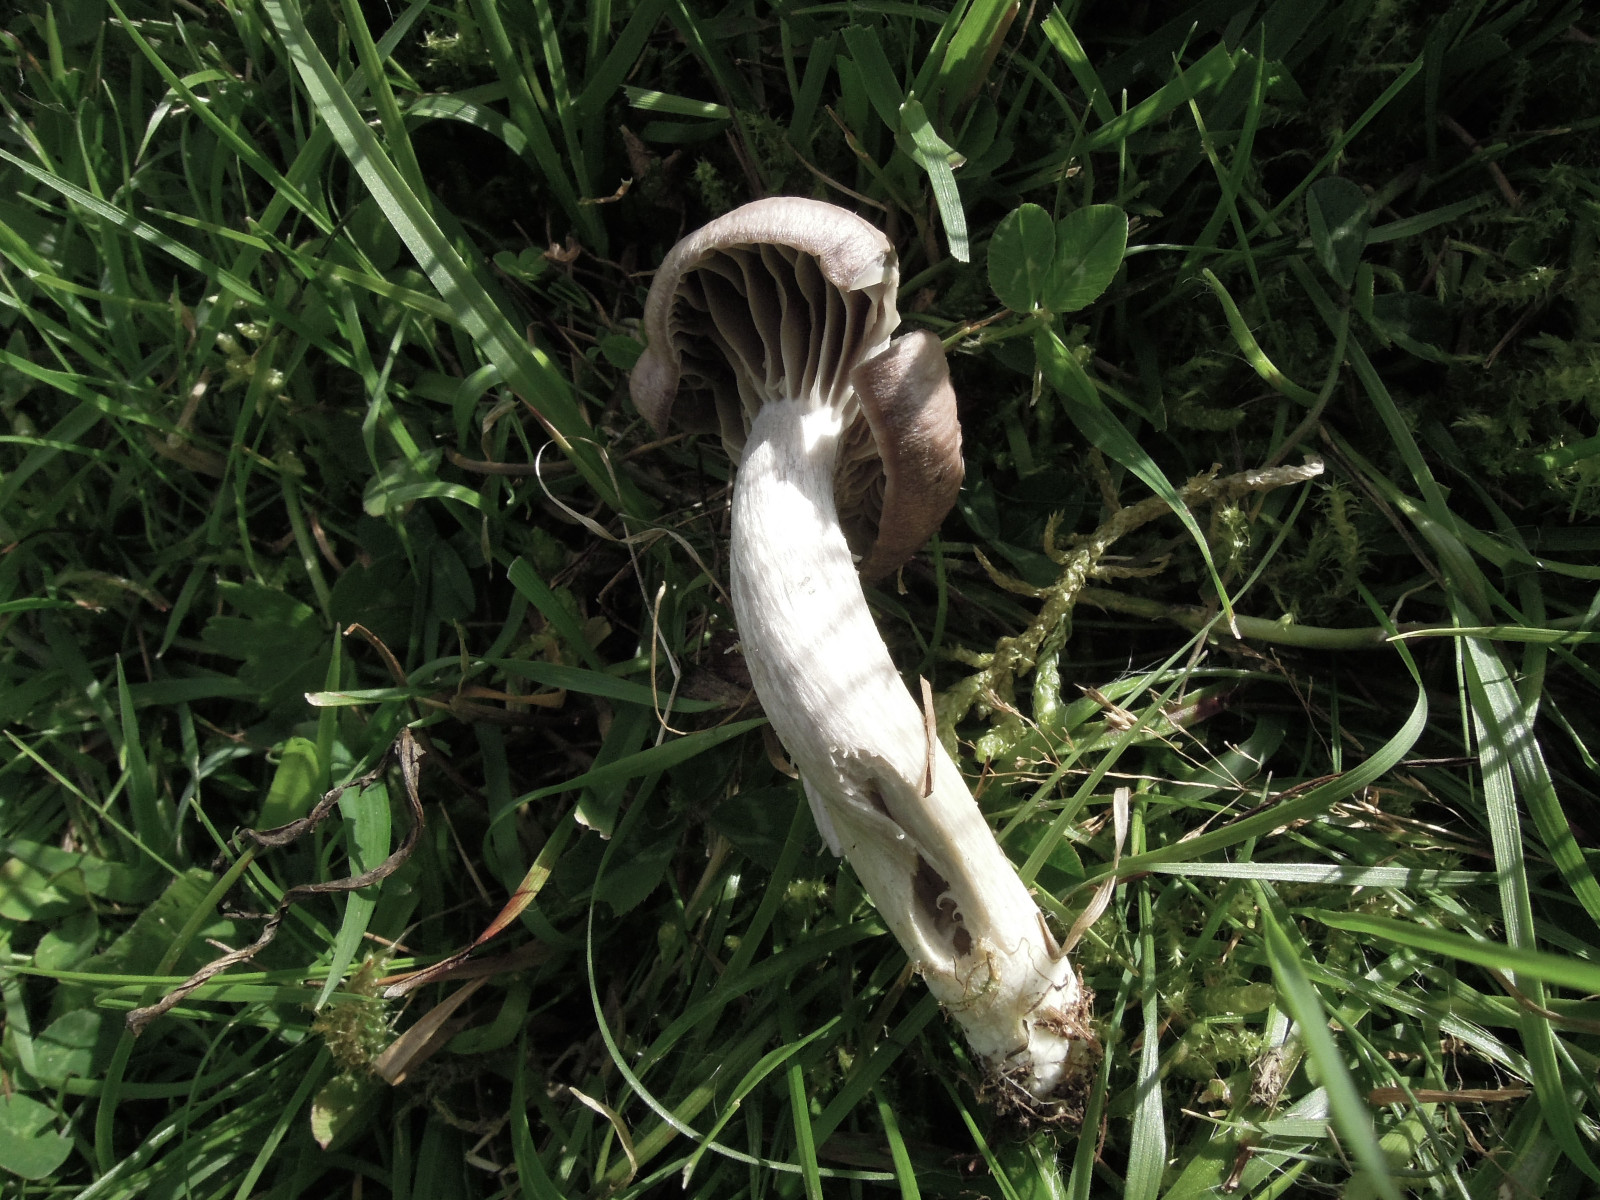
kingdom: Fungi
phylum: Basidiomycota
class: Agaricomycetes
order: Agaricales
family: Hygrophoraceae
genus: Cuphophyllus
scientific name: Cuphophyllus flavipes
